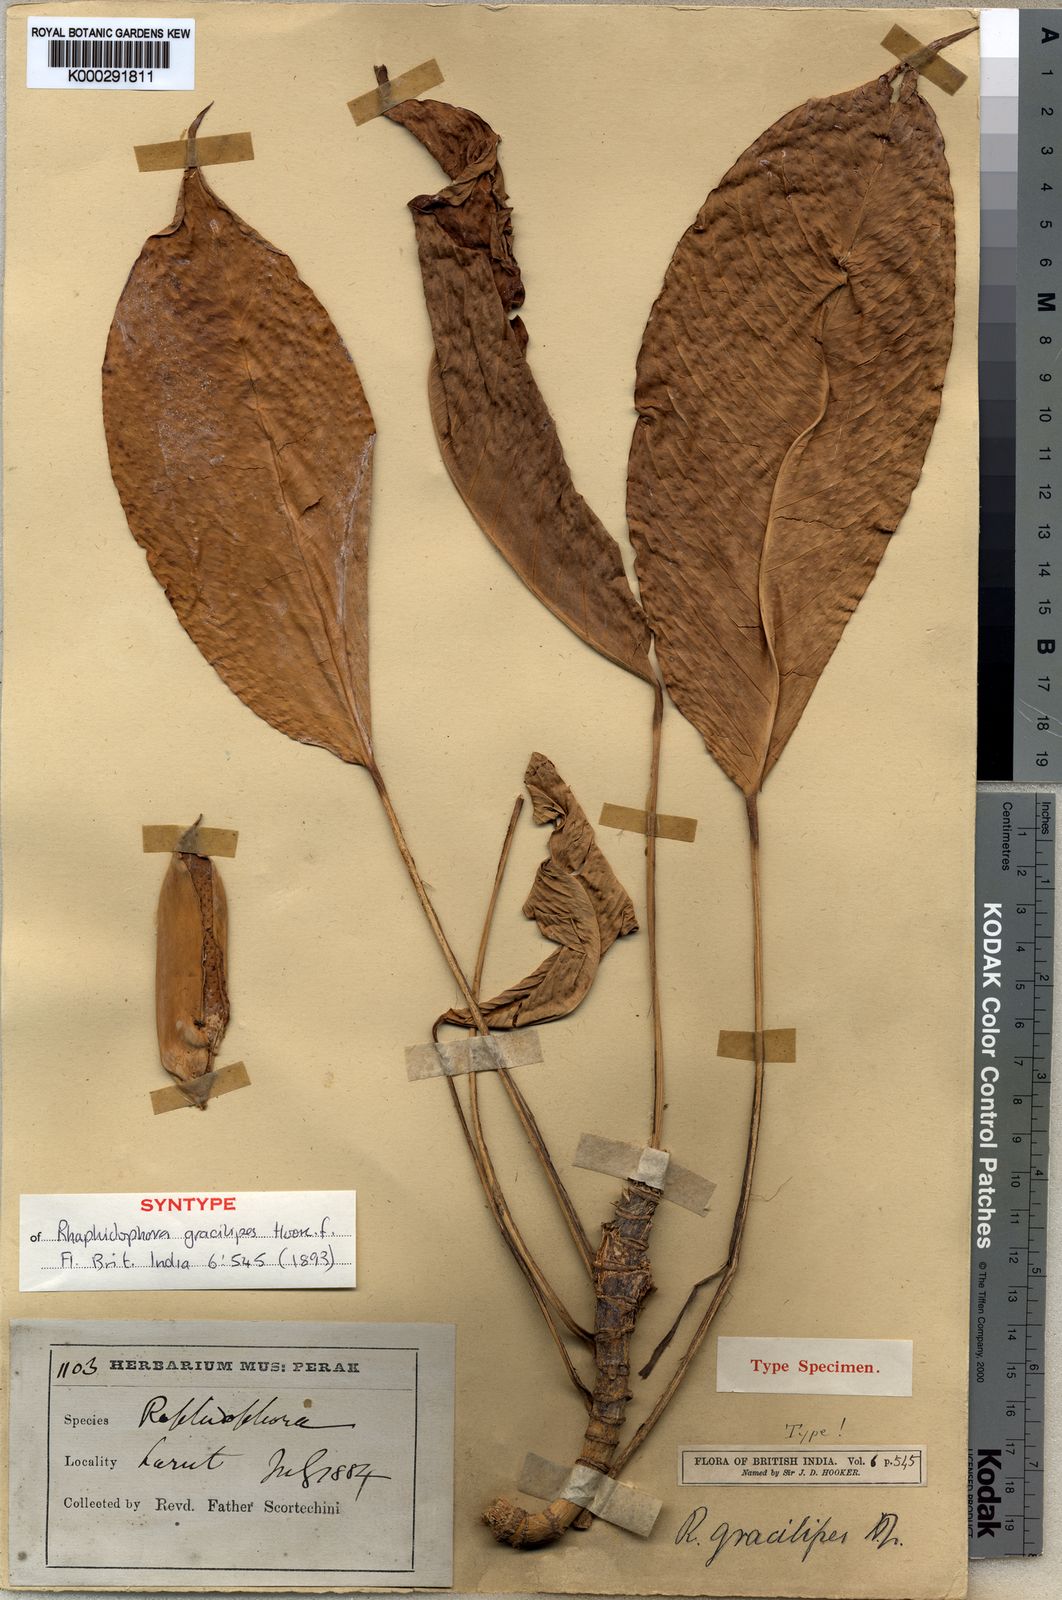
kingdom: Plantae
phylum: Tracheophyta
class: Liliopsida
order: Alismatales
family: Araceae
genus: Rhaphidophora
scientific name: Rhaphidophora puberula
